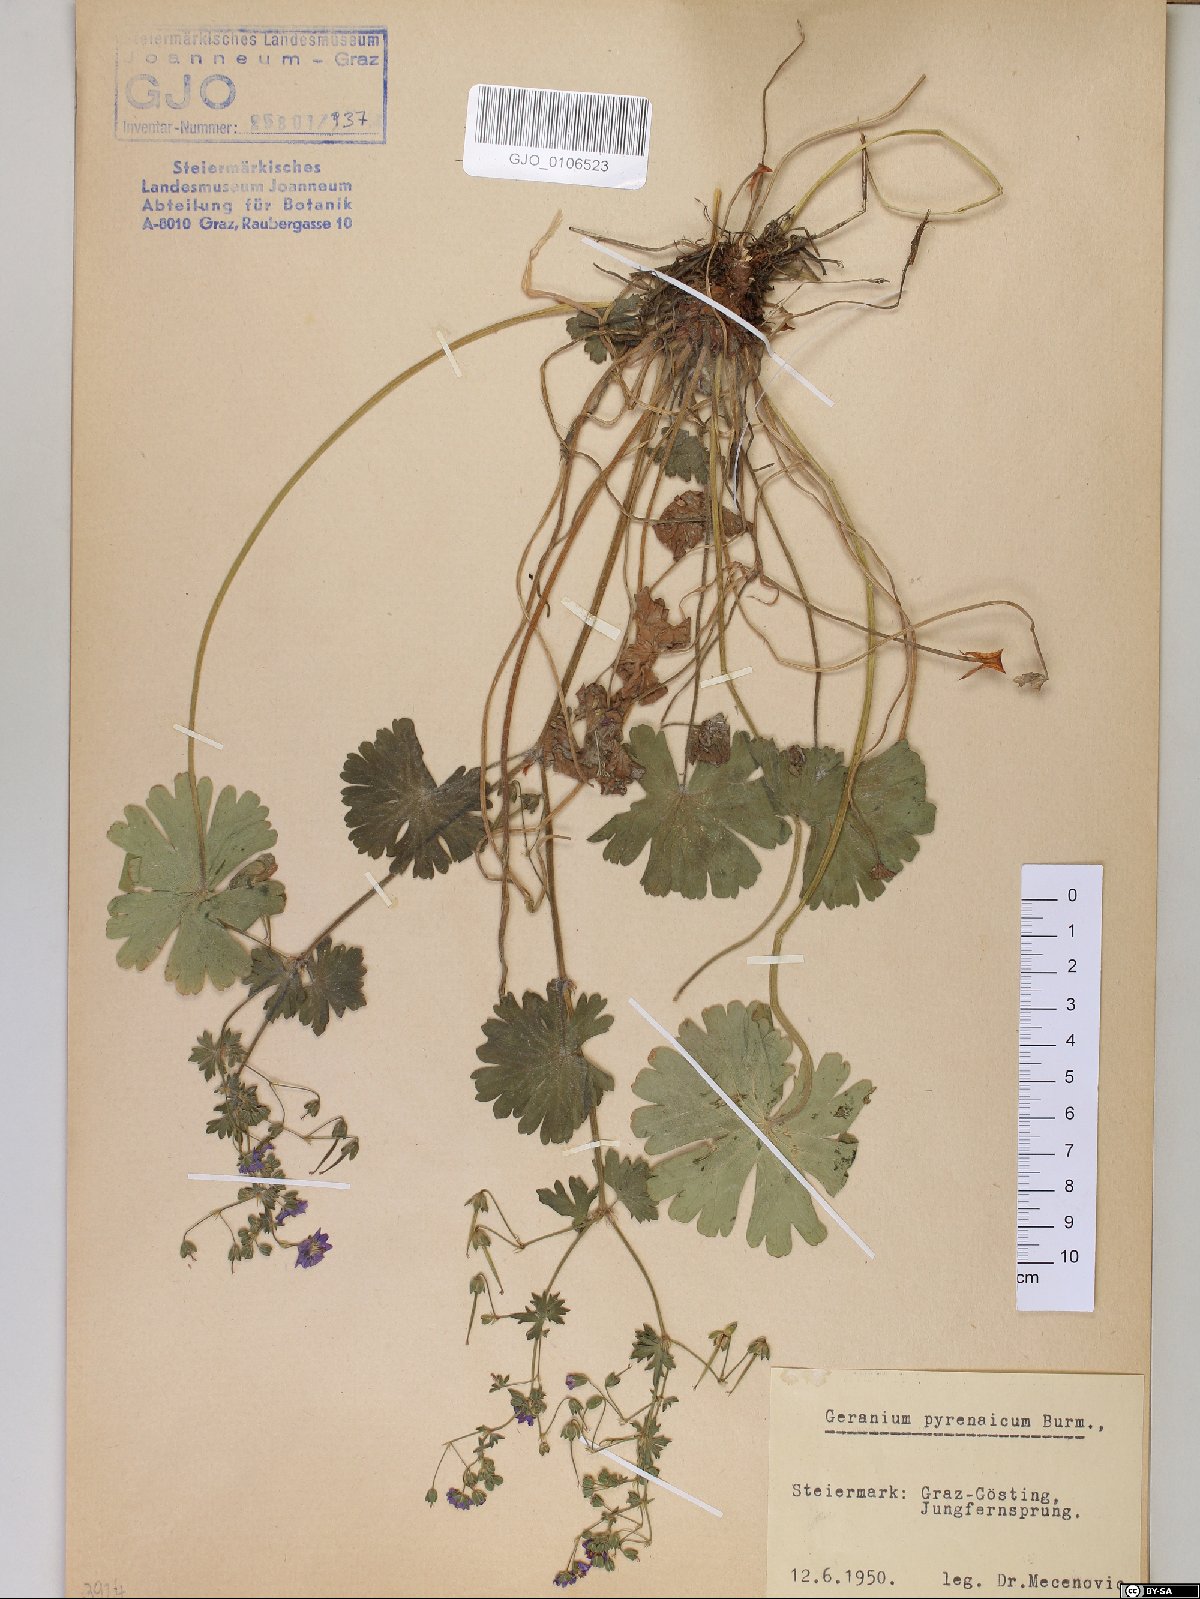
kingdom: Plantae
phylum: Tracheophyta
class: Magnoliopsida
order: Geraniales
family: Geraniaceae
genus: Geranium
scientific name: Geranium pyrenaicum
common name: Hedgerow crane's-bill
